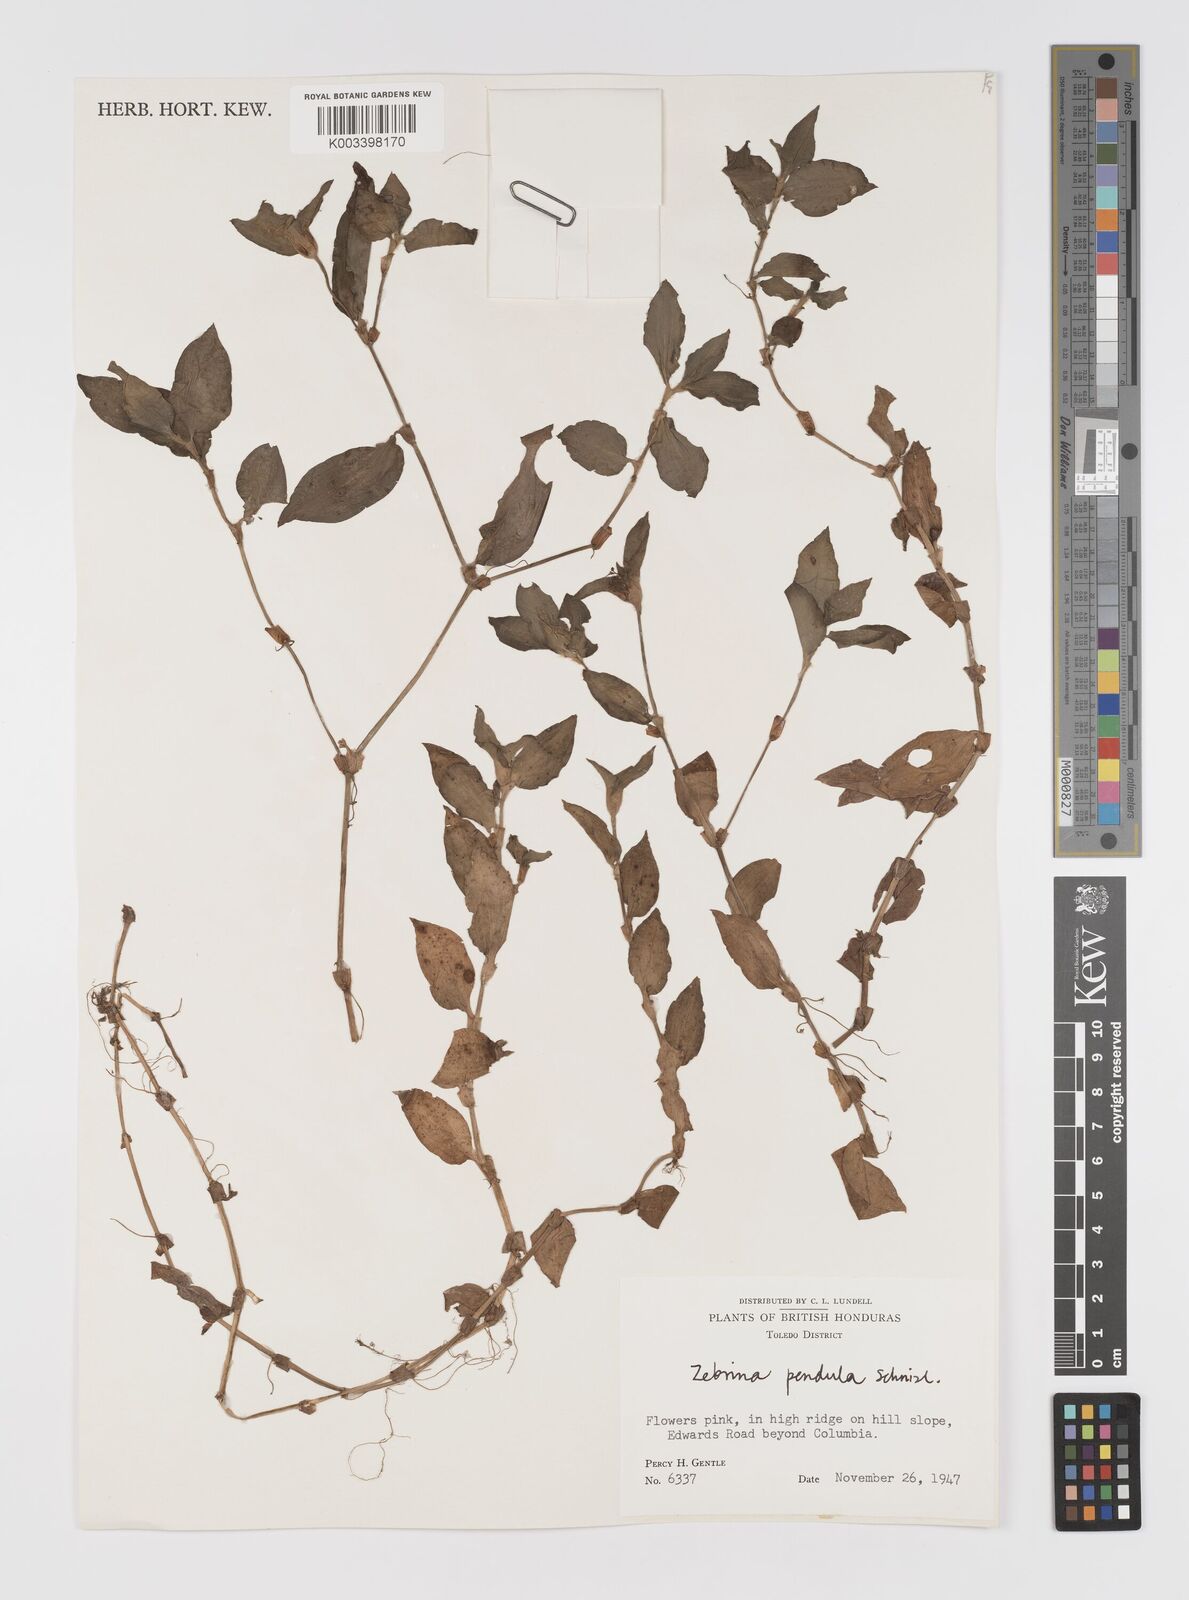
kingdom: Plantae
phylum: Tracheophyta
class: Liliopsida
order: Commelinales
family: Commelinaceae
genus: Tradescantia
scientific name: Tradescantia zebrina
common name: Inchplant
